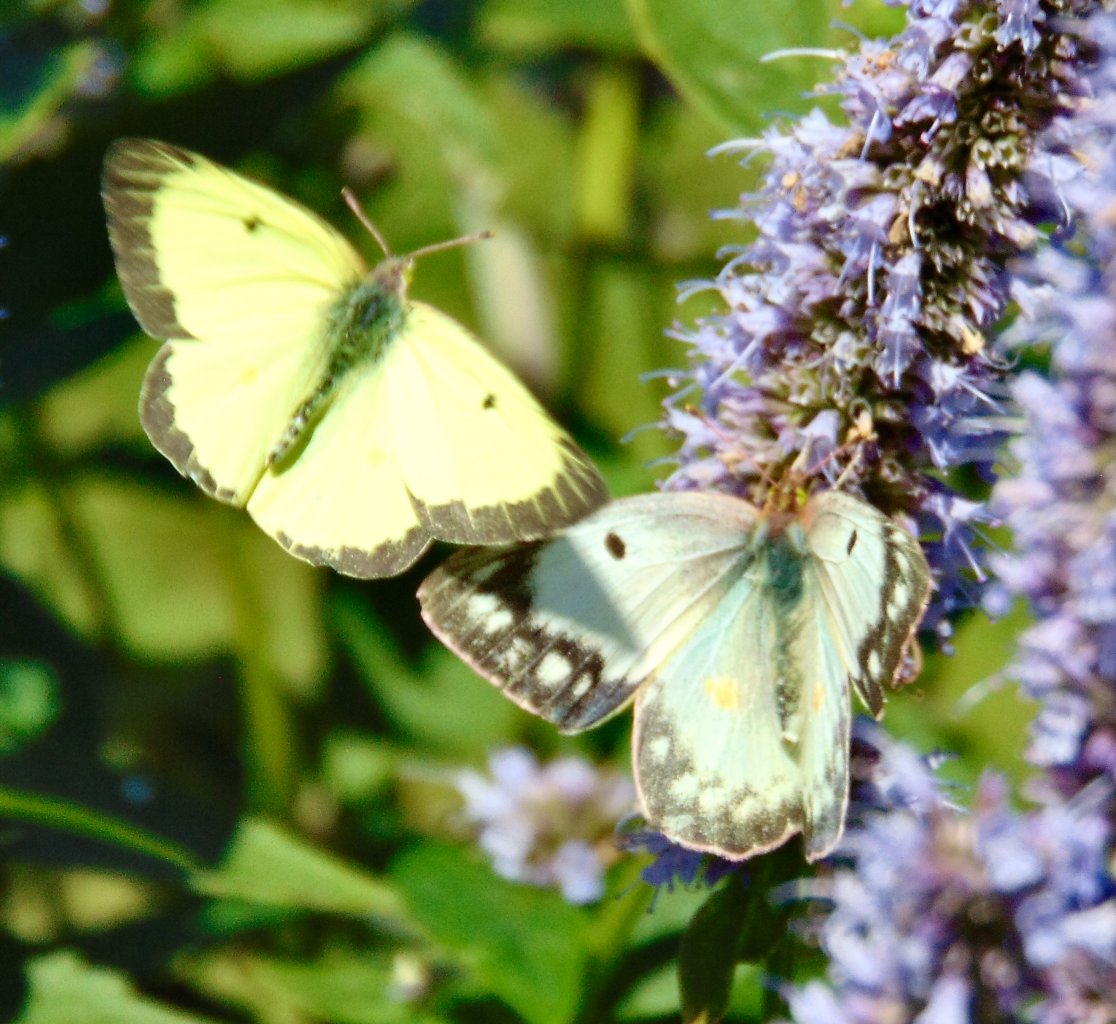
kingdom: Animalia
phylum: Arthropoda
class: Insecta
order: Lepidoptera
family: Pieridae
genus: Colias
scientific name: Colias
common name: Clouded Yellows
